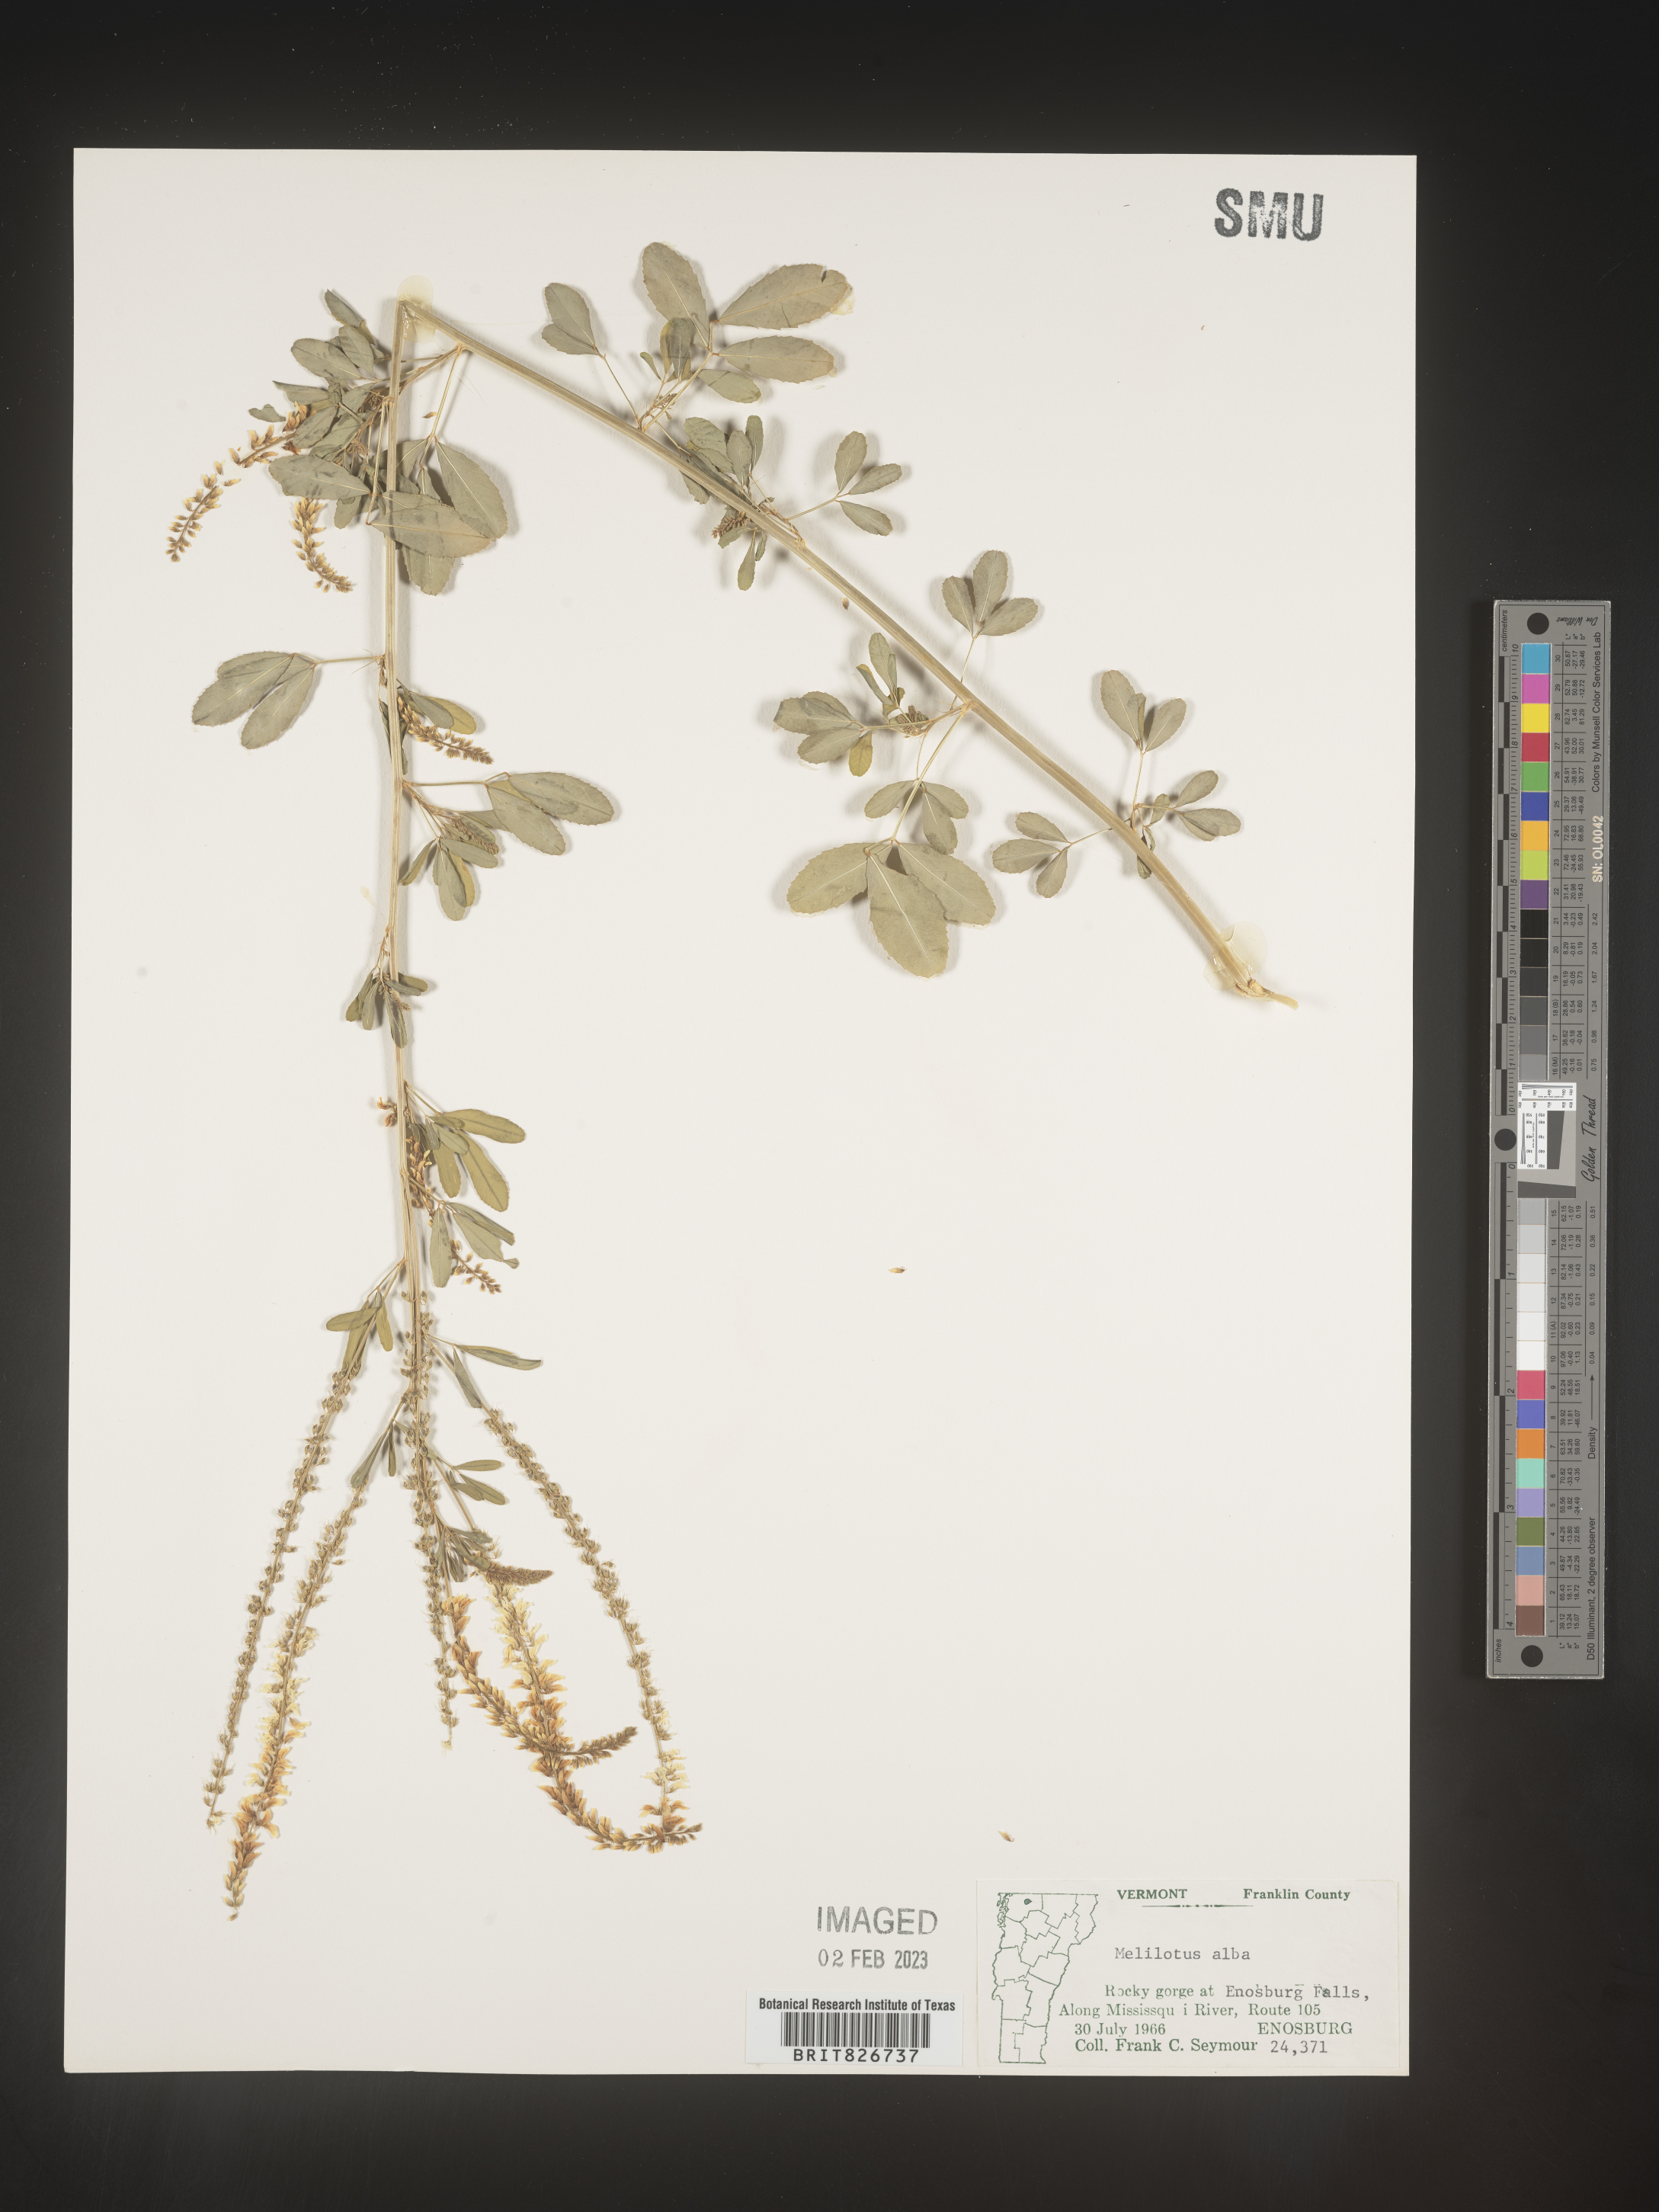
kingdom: Plantae
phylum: Tracheophyta
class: Magnoliopsida
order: Fabales
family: Fabaceae
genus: Melilotus
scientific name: Melilotus albus
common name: White melilot
